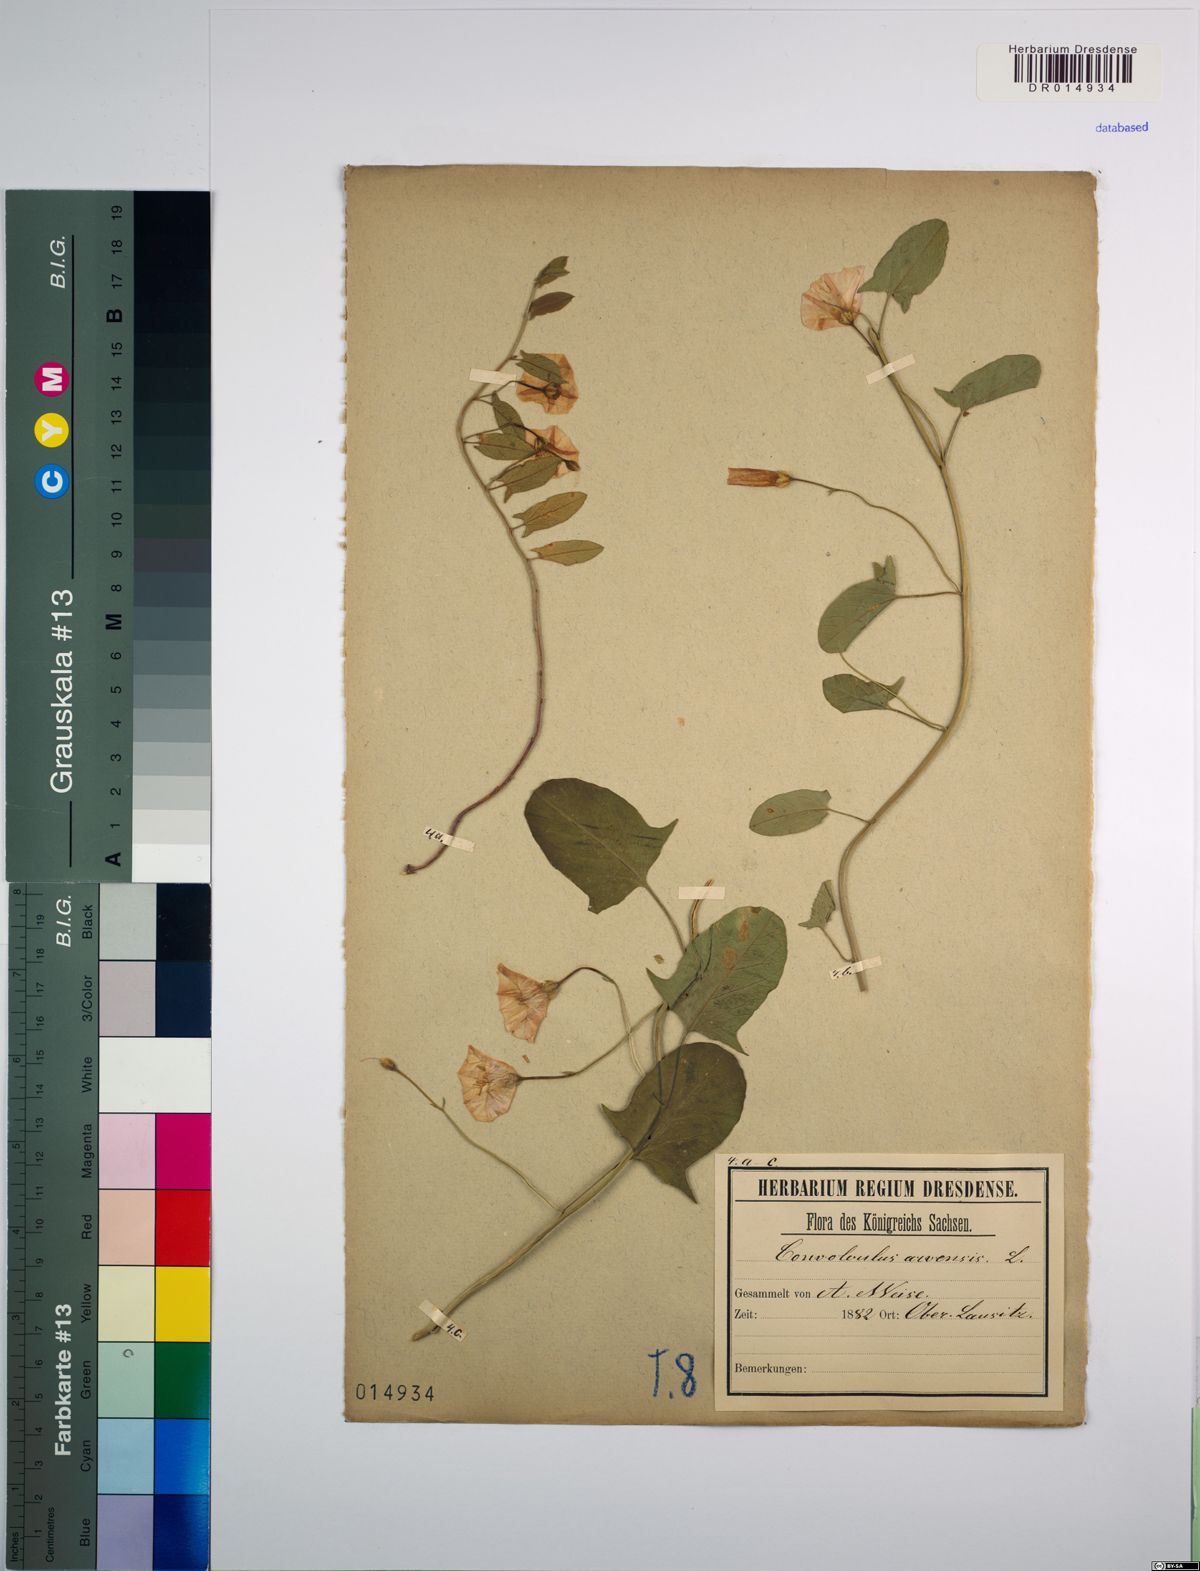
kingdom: Plantae
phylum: Tracheophyta
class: Magnoliopsida
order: Solanales
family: Convolvulaceae
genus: Convolvulus
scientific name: Convolvulus arvensis
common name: Field bindweed
